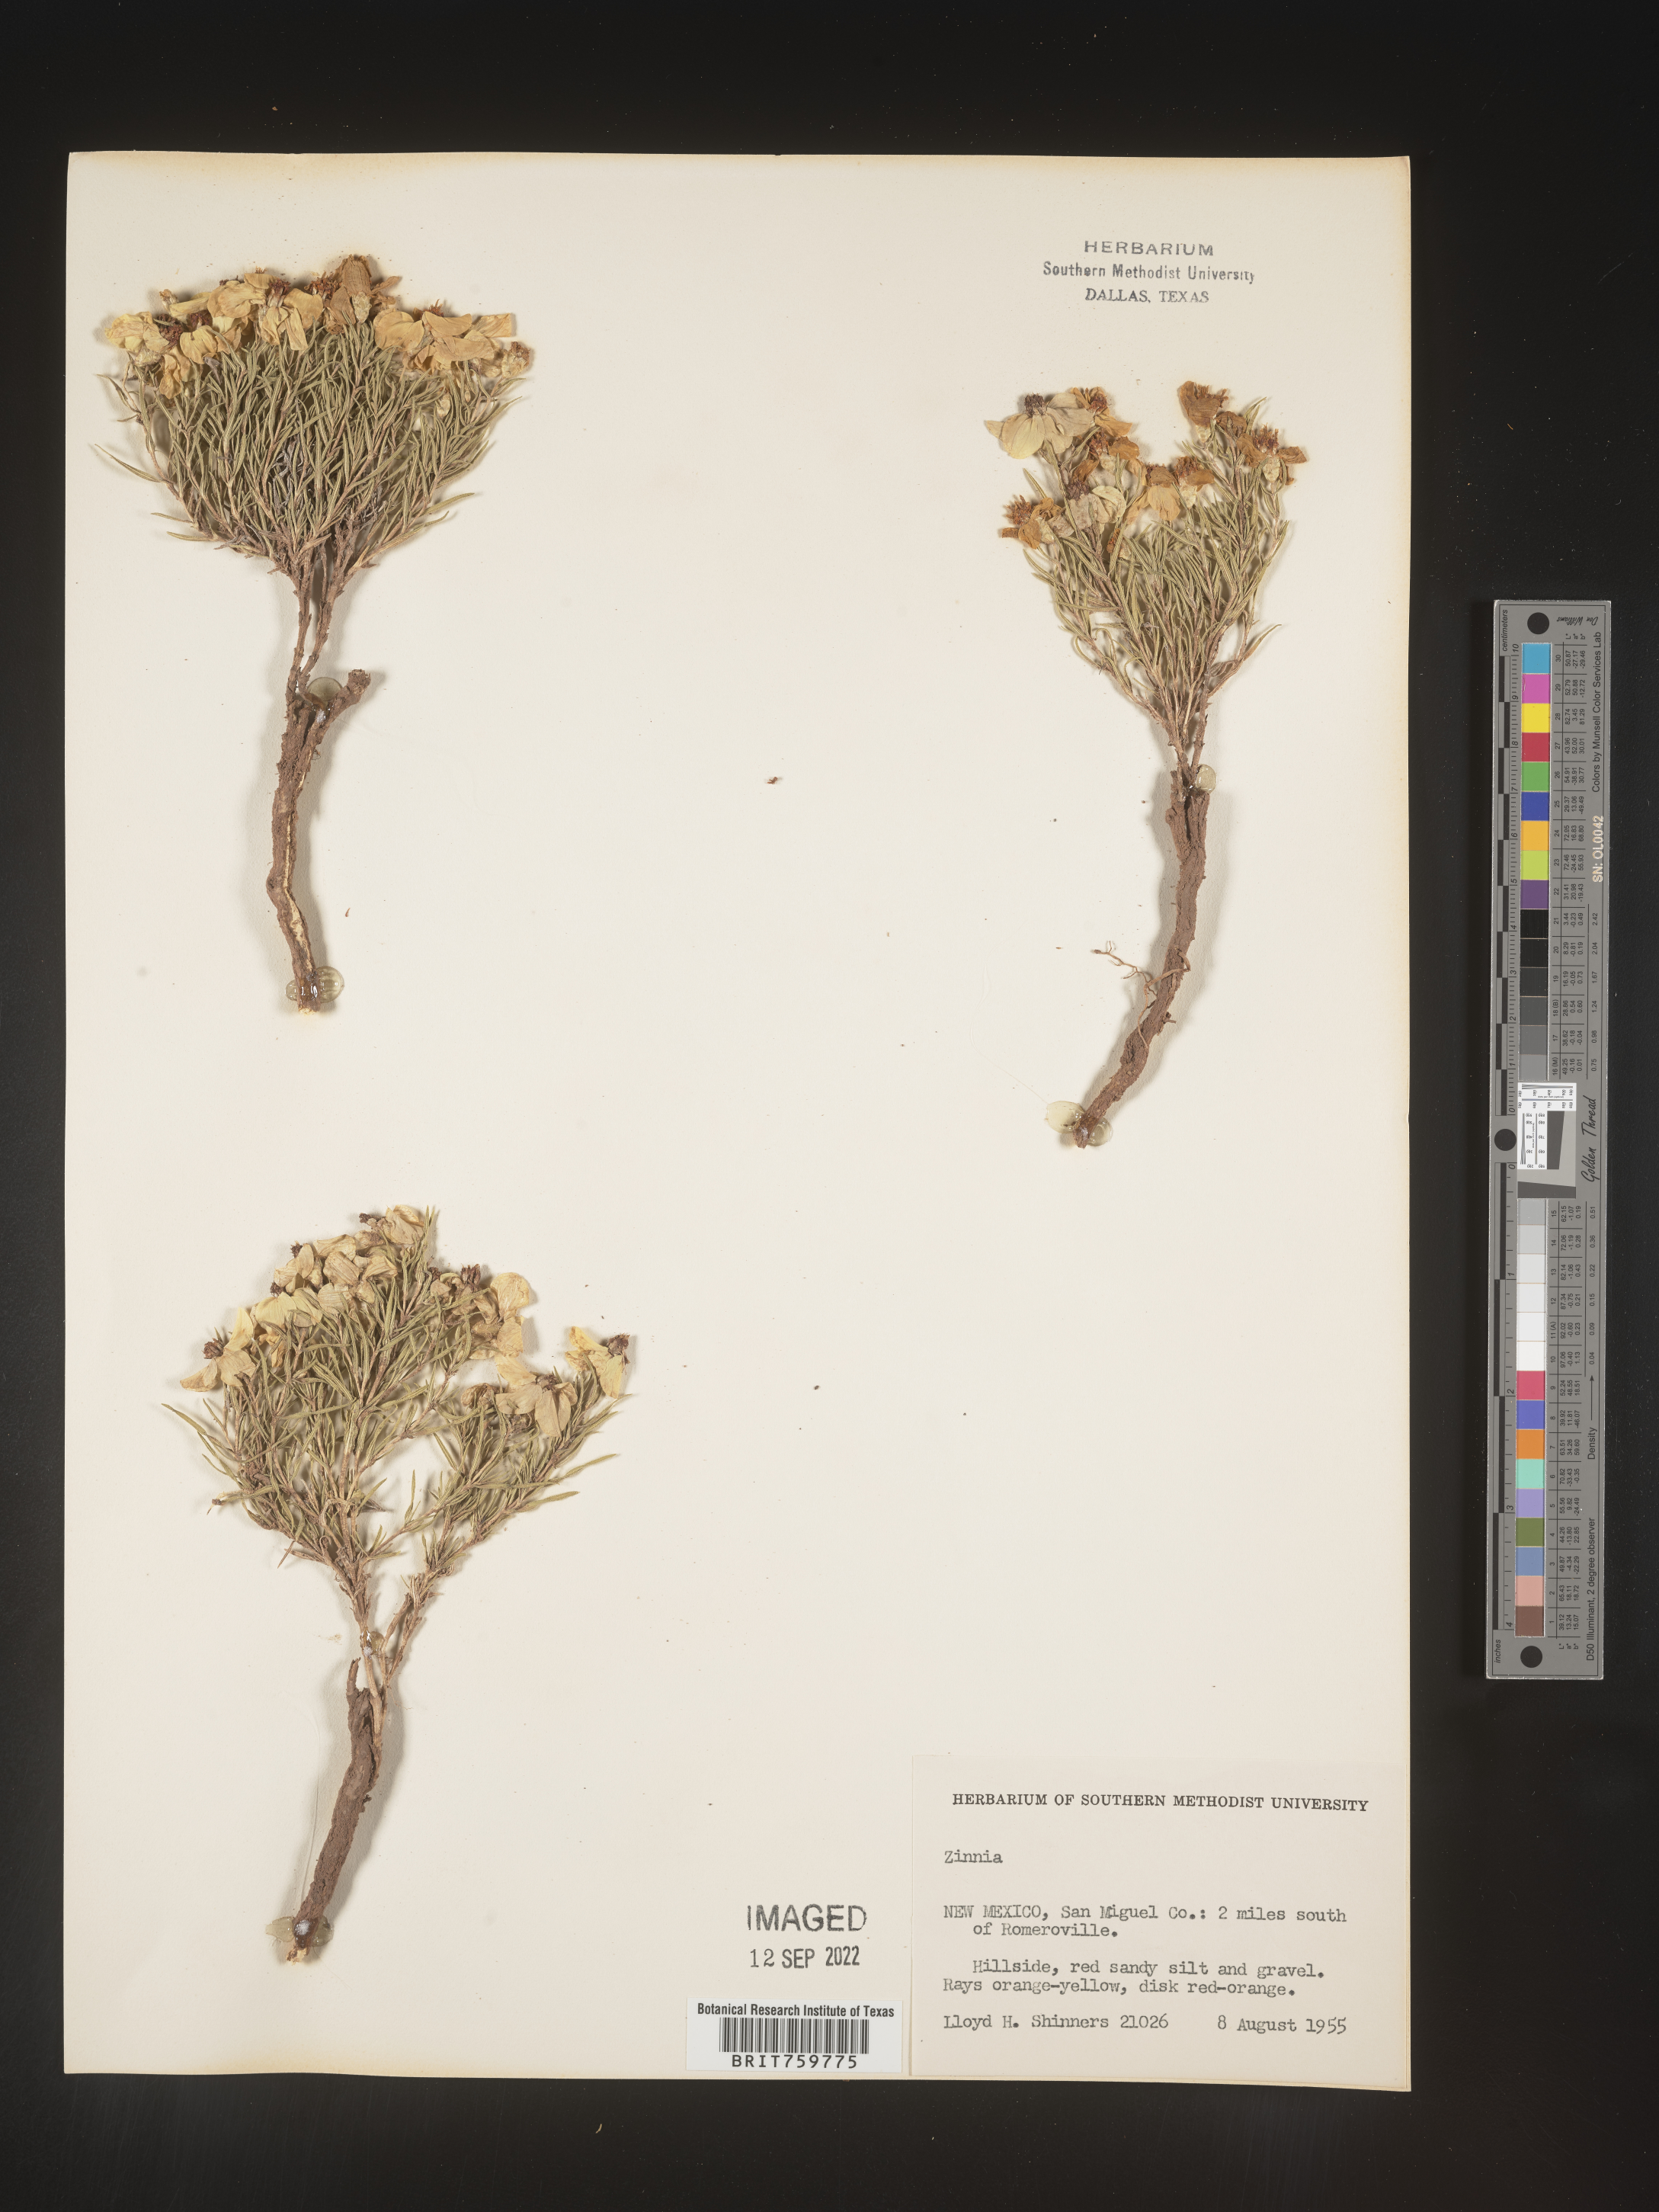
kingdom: Plantae
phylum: Tracheophyta
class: Magnoliopsida
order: Asterales
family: Asteraceae
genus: Zinnia
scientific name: Zinnia grandiflora
